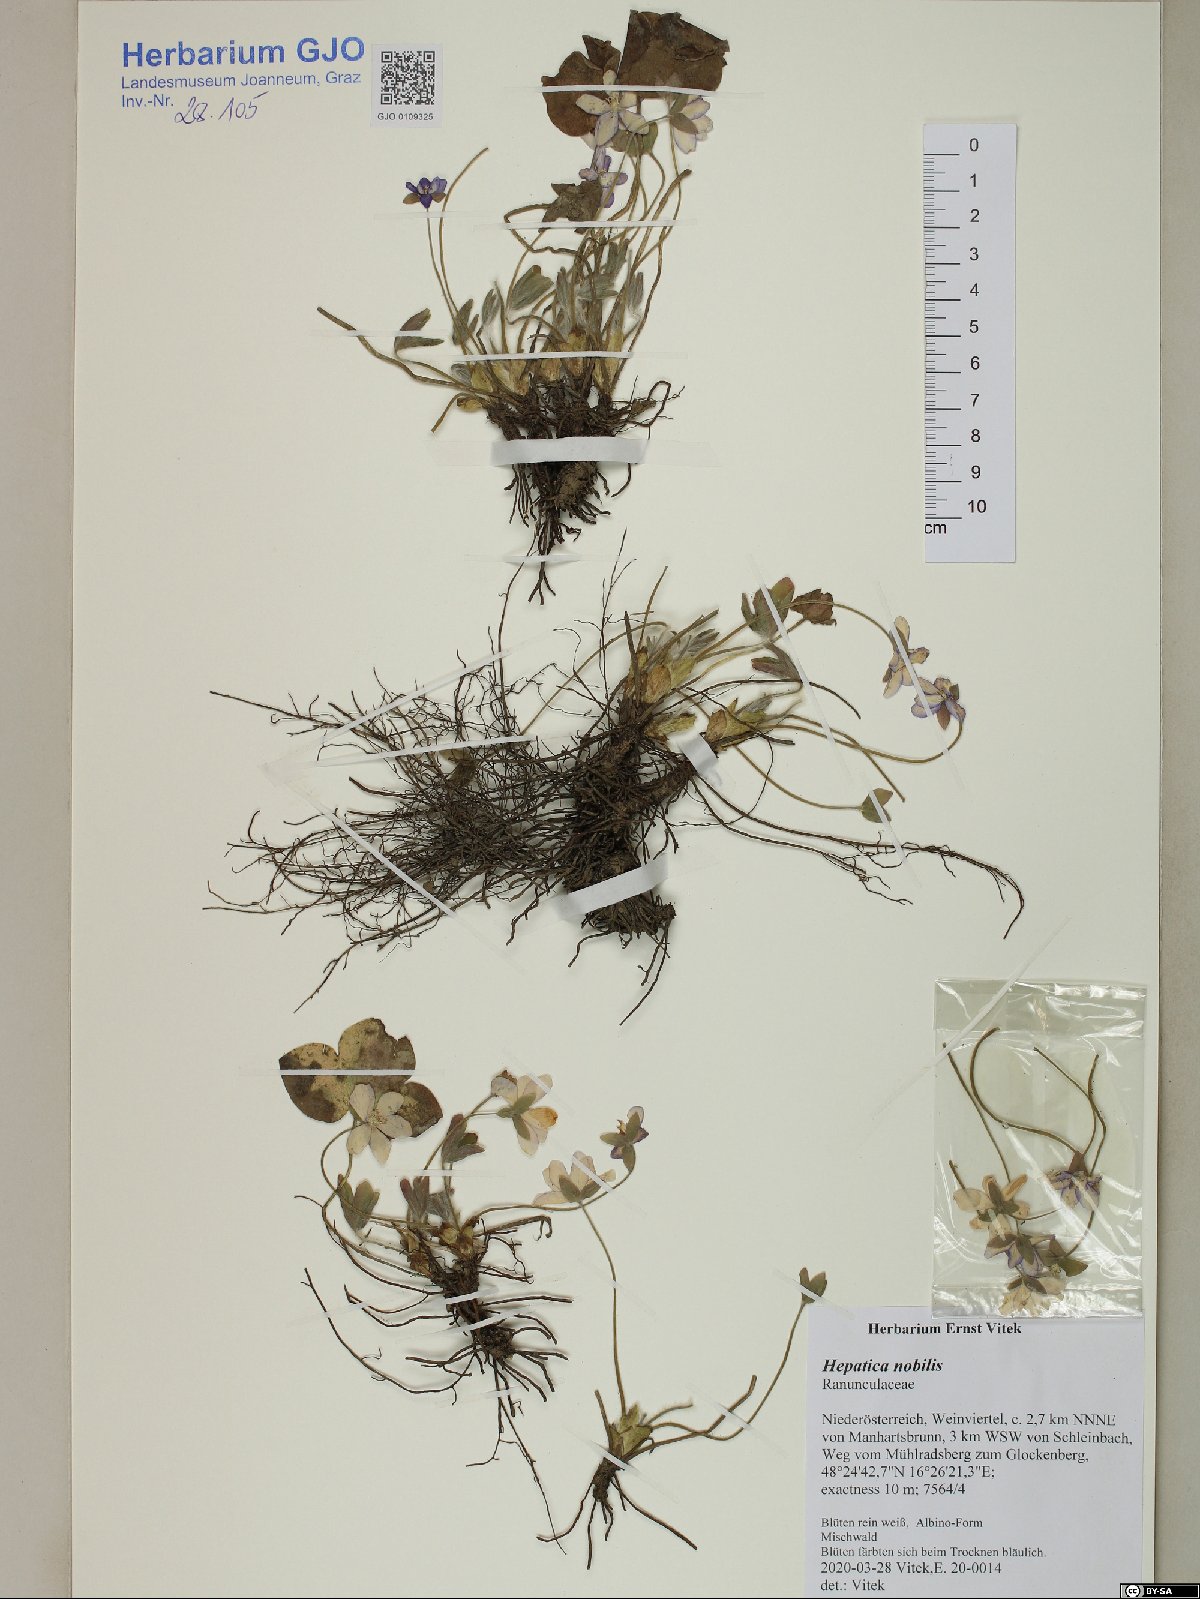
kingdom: Plantae
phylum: Tracheophyta
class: Magnoliopsida
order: Ranunculales
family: Ranunculaceae
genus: Hepatica
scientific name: Hepatica nobilis
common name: Liverleaf
